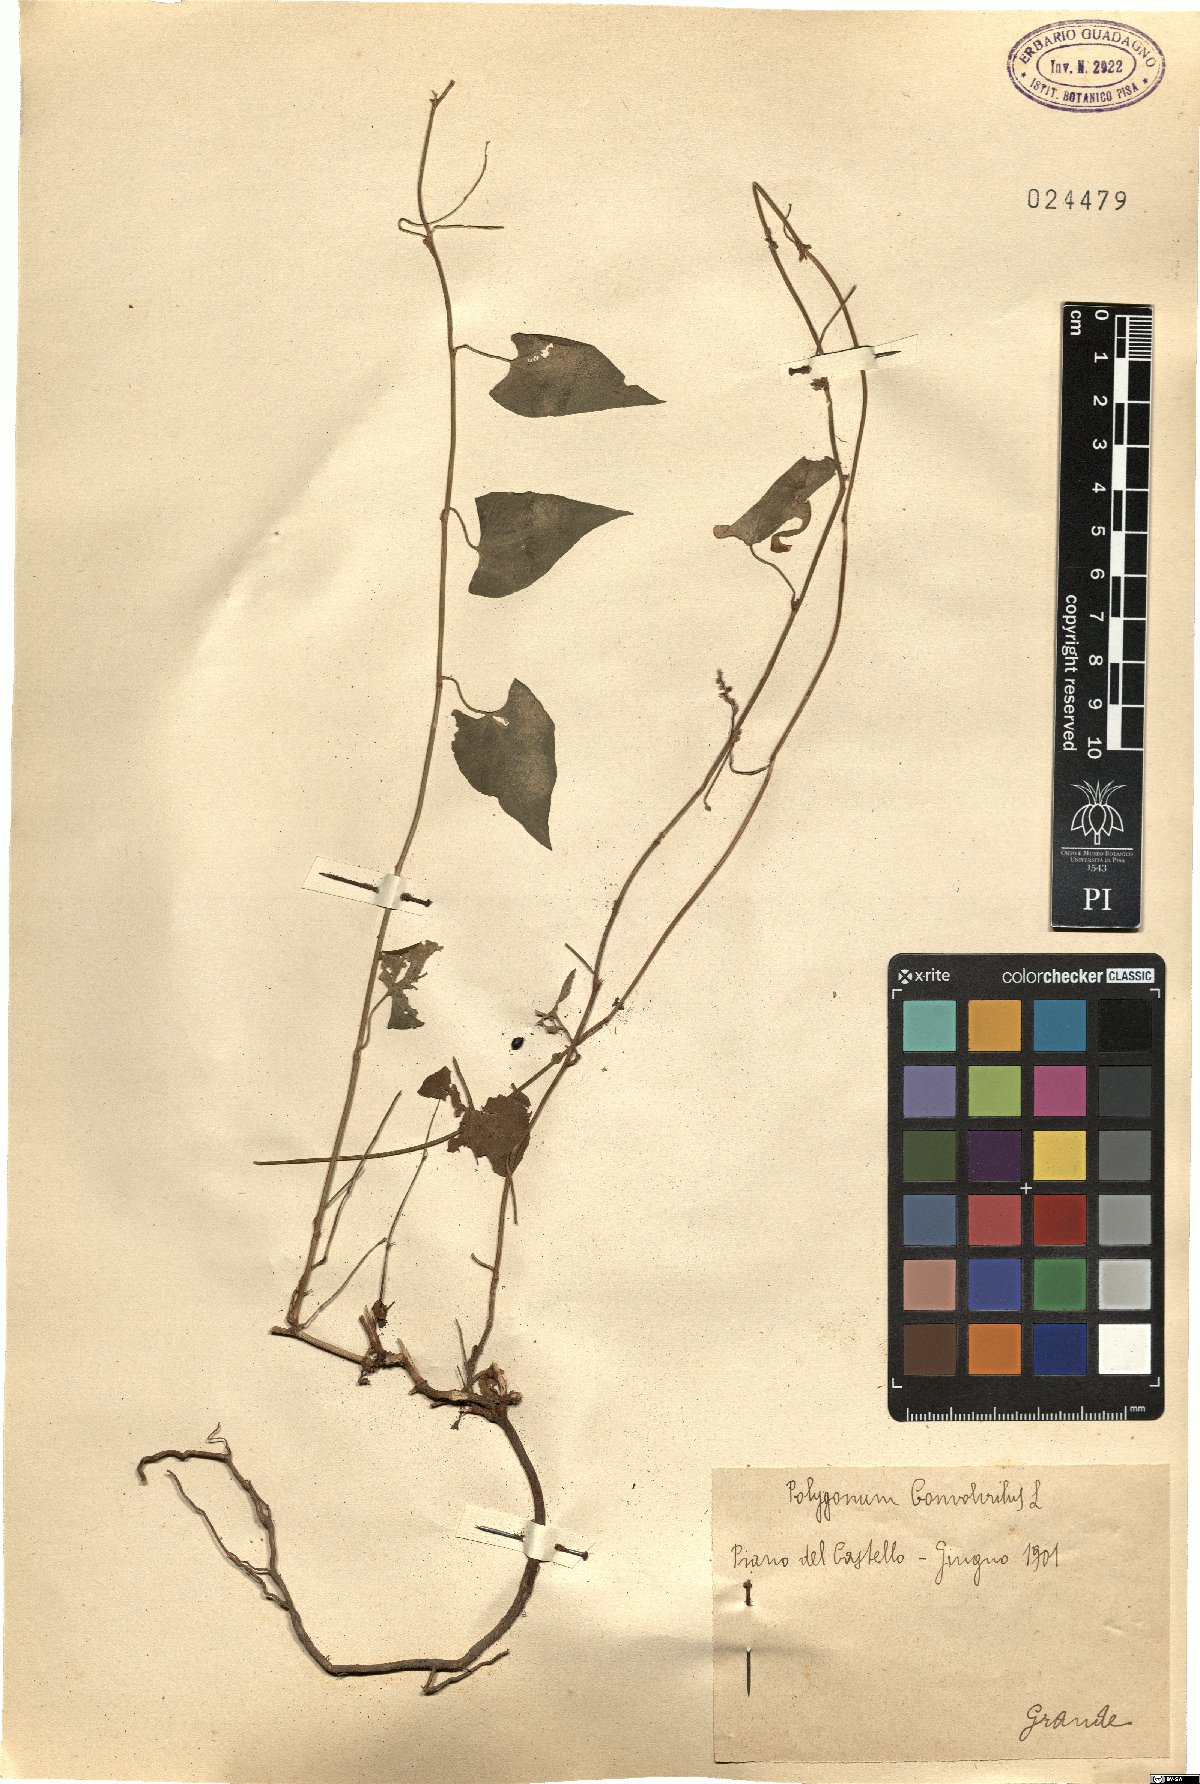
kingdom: Plantae
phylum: Tracheophyta
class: Magnoliopsida
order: Caryophyllales
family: Polygonaceae
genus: Fallopia
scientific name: Fallopia convolvulus
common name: Black bindweed
